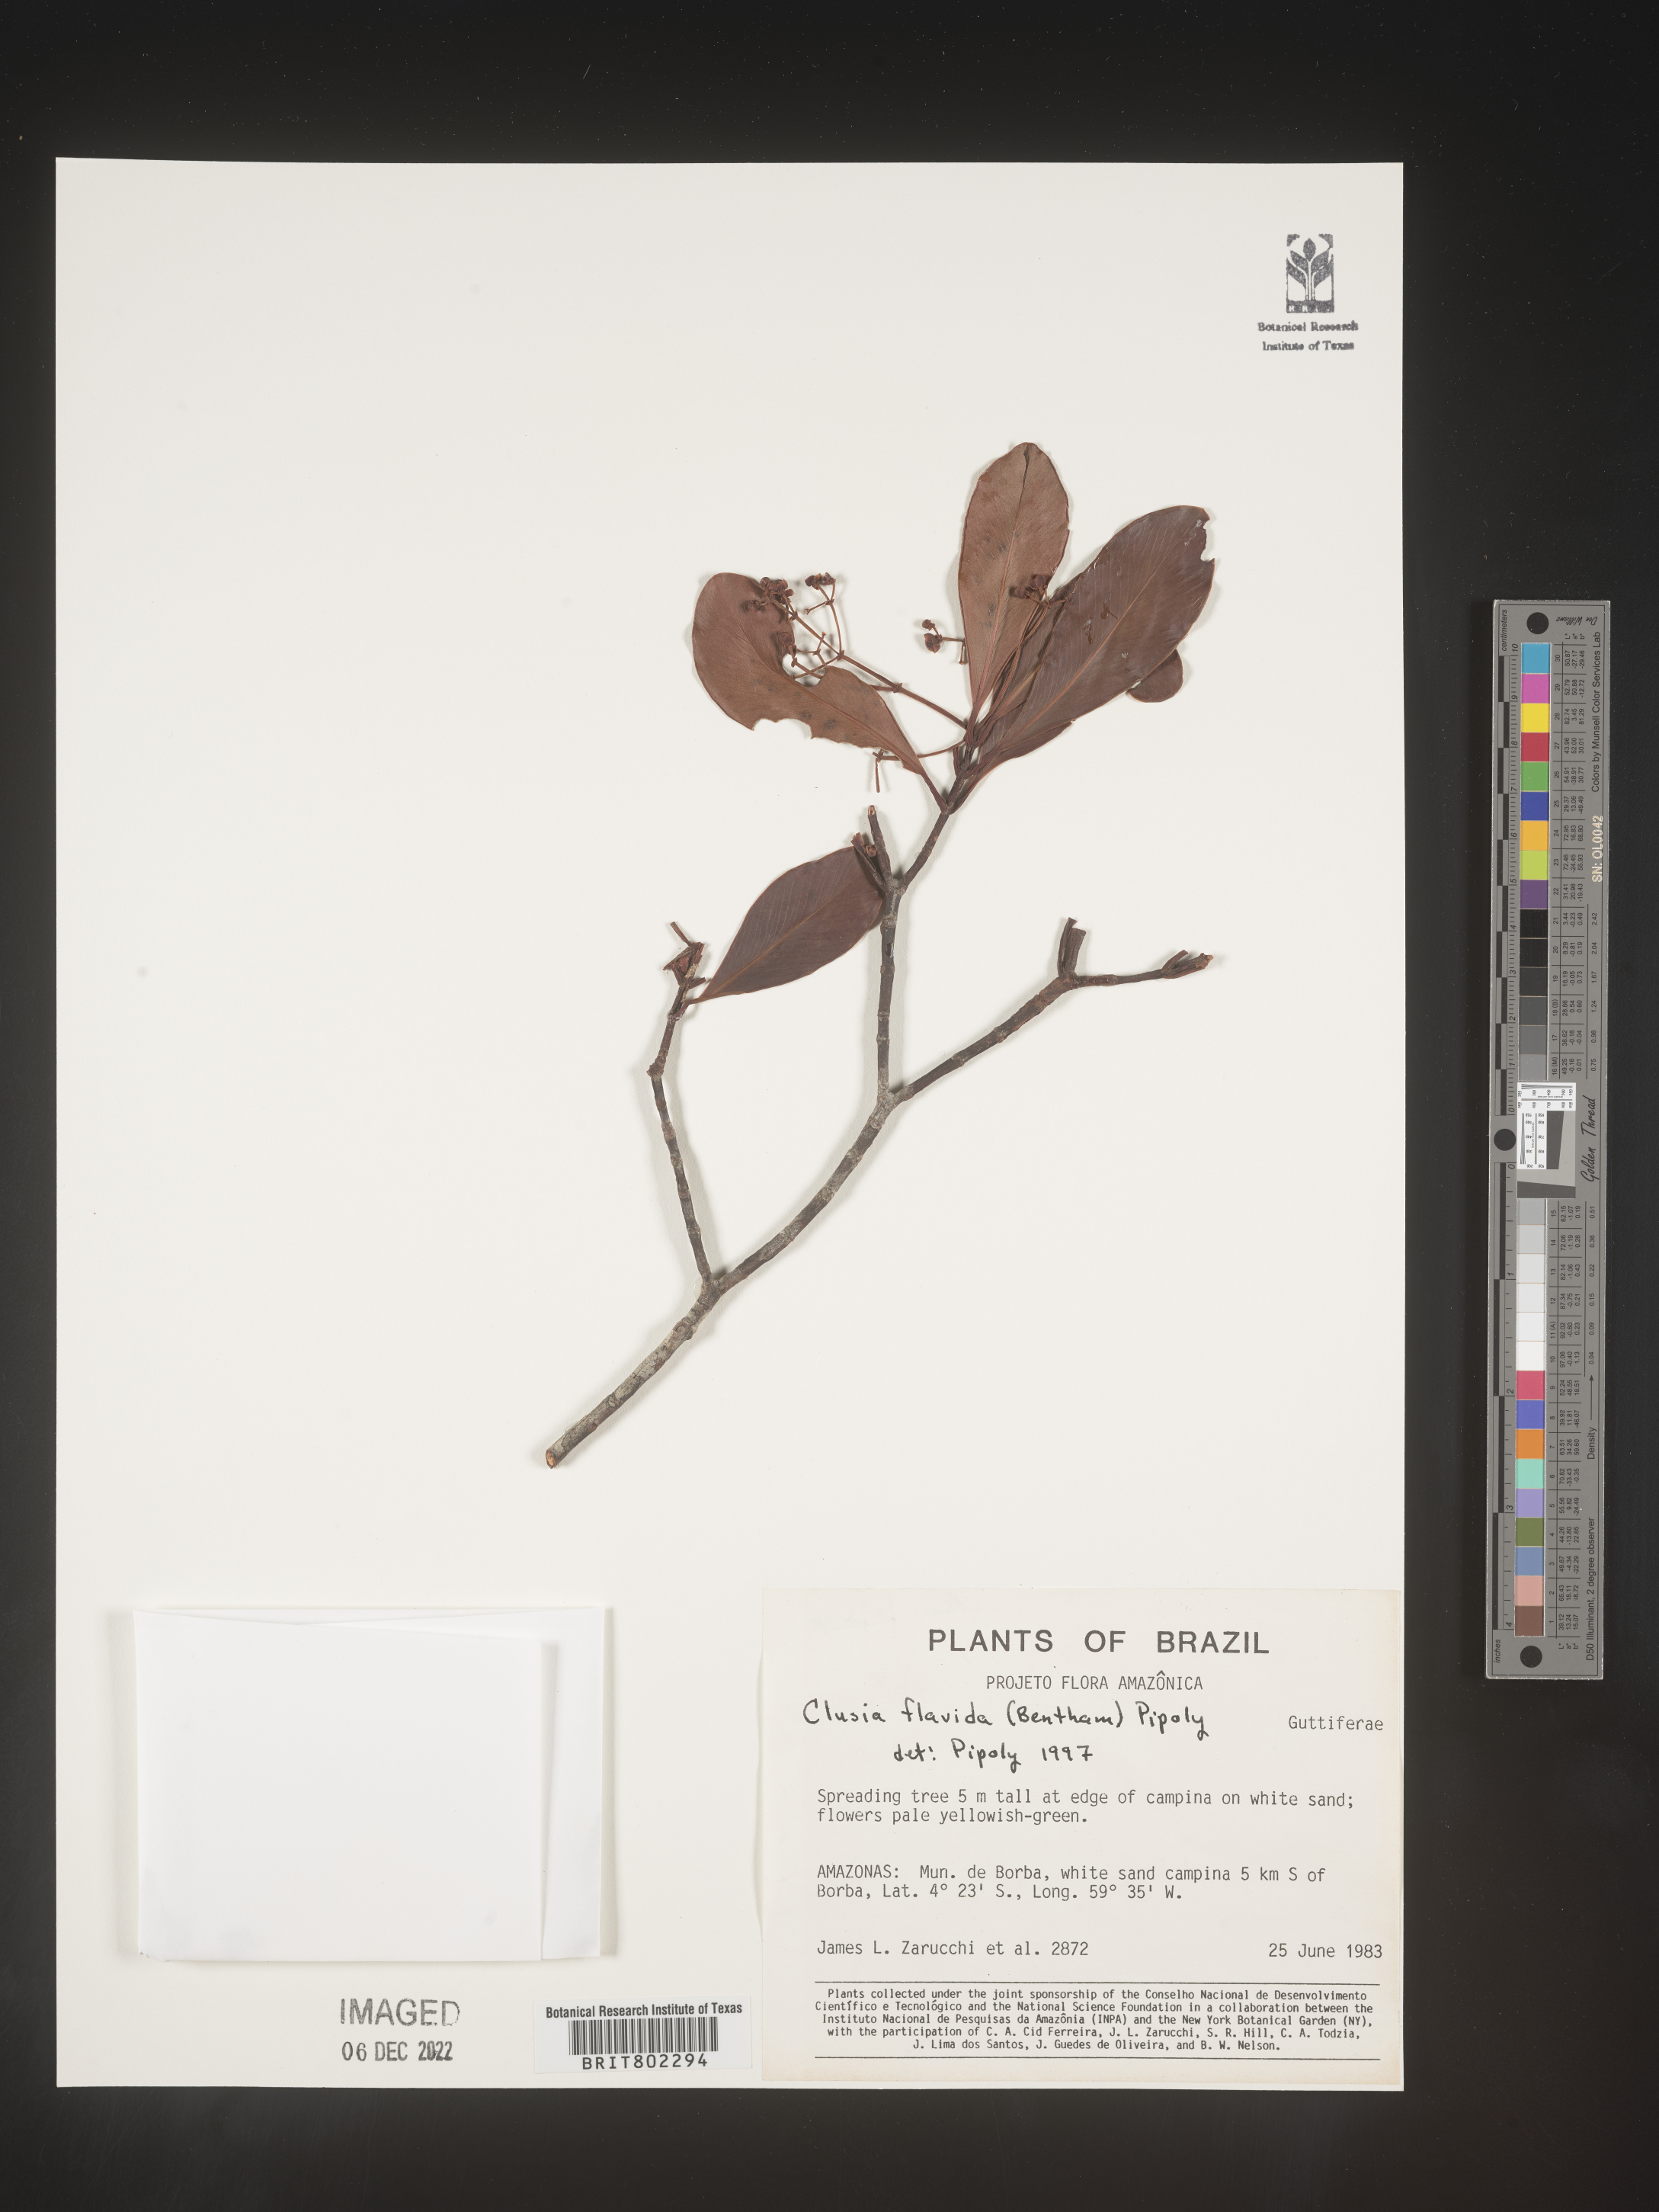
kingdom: Plantae
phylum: Tracheophyta
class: Magnoliopsida
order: Malpighiales
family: Clusiaceae
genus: Clusia
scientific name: Clusia flavida
